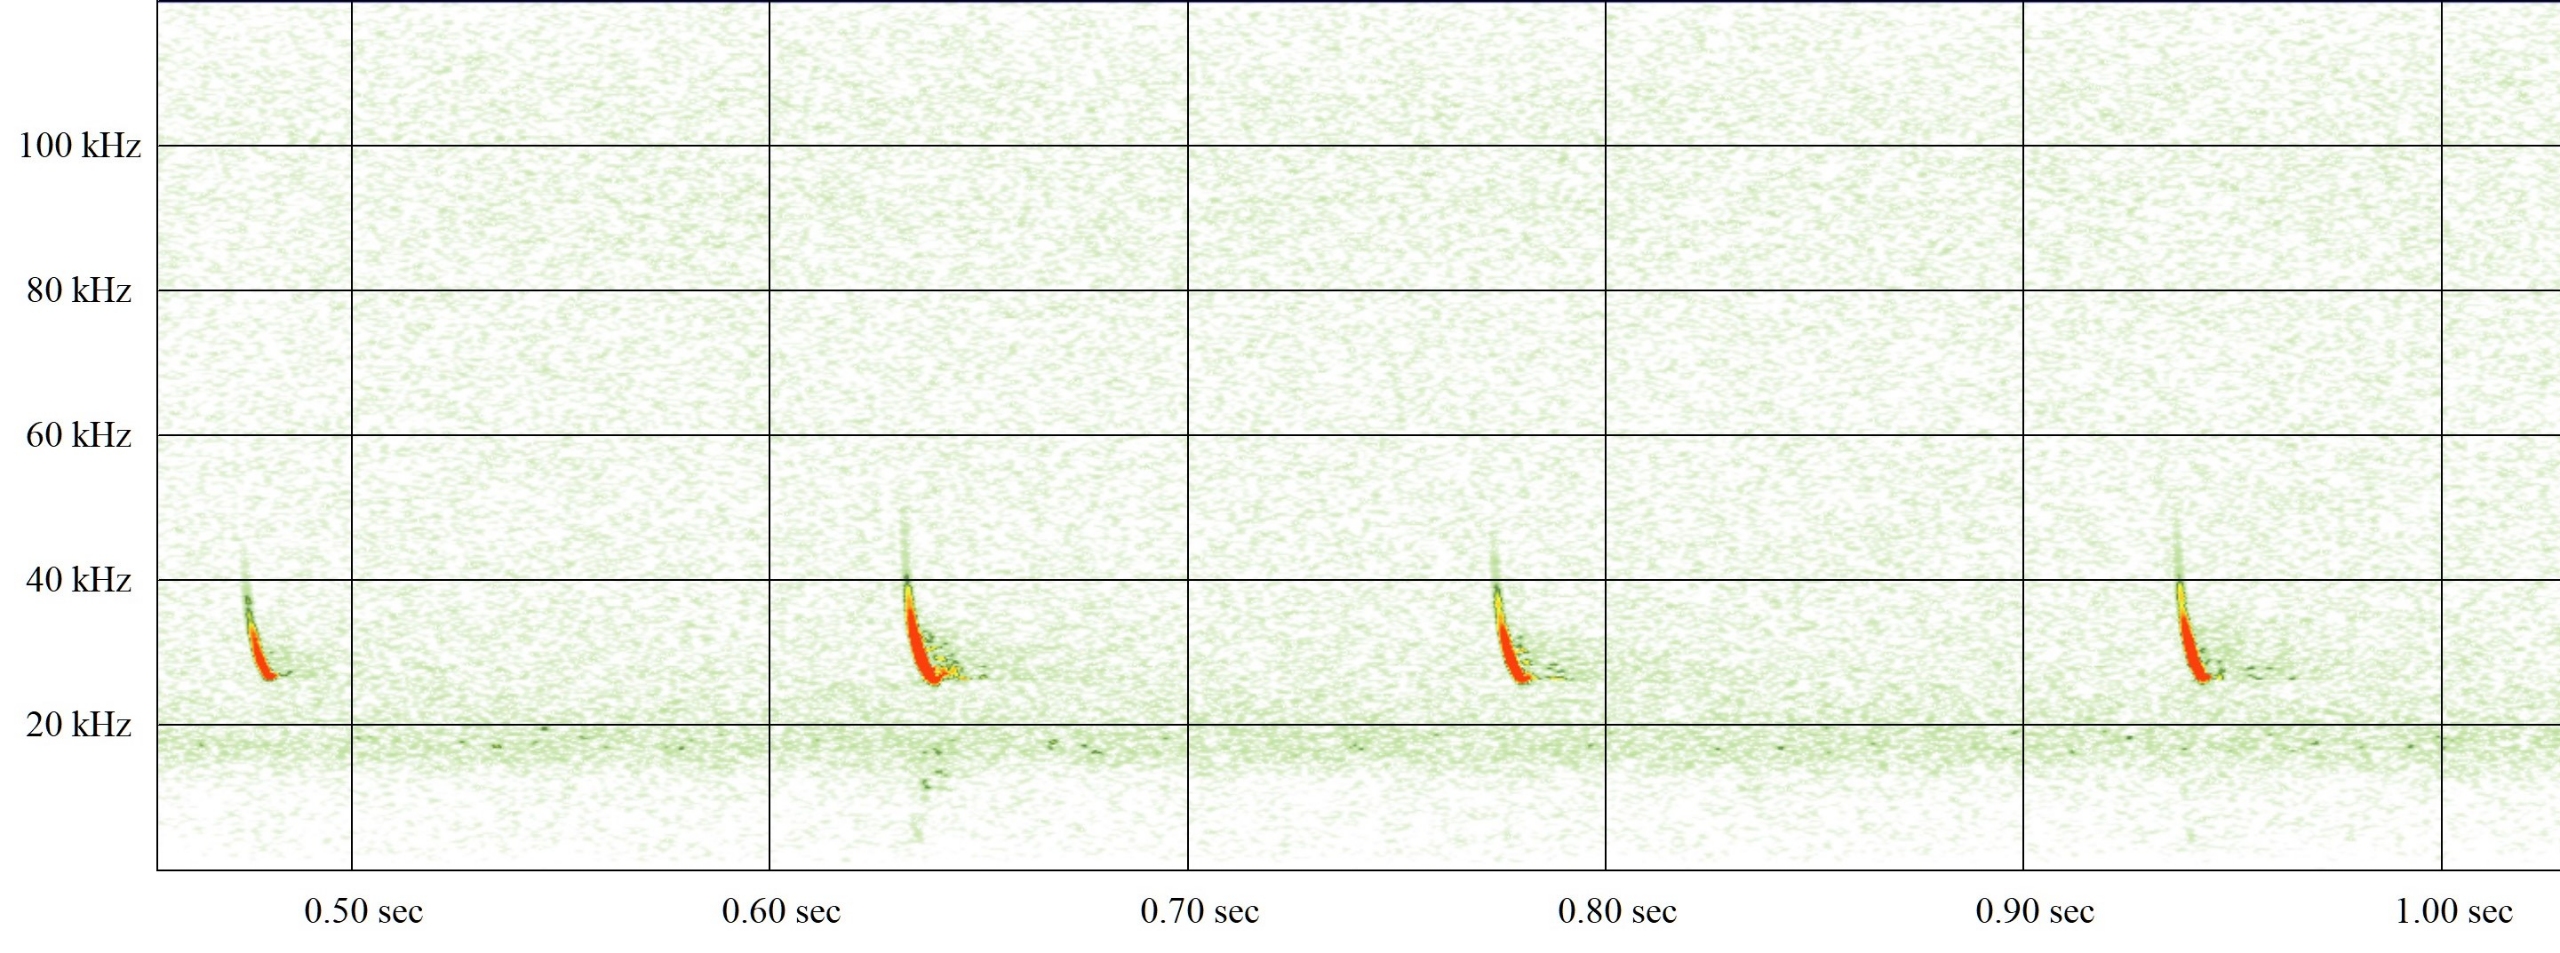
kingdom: Animalia
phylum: Chordata
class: Mammalia
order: Chiroptera
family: Vespertilionidae
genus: Eptesicus
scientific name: Eptesicus serotinus
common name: Sydflagermus
